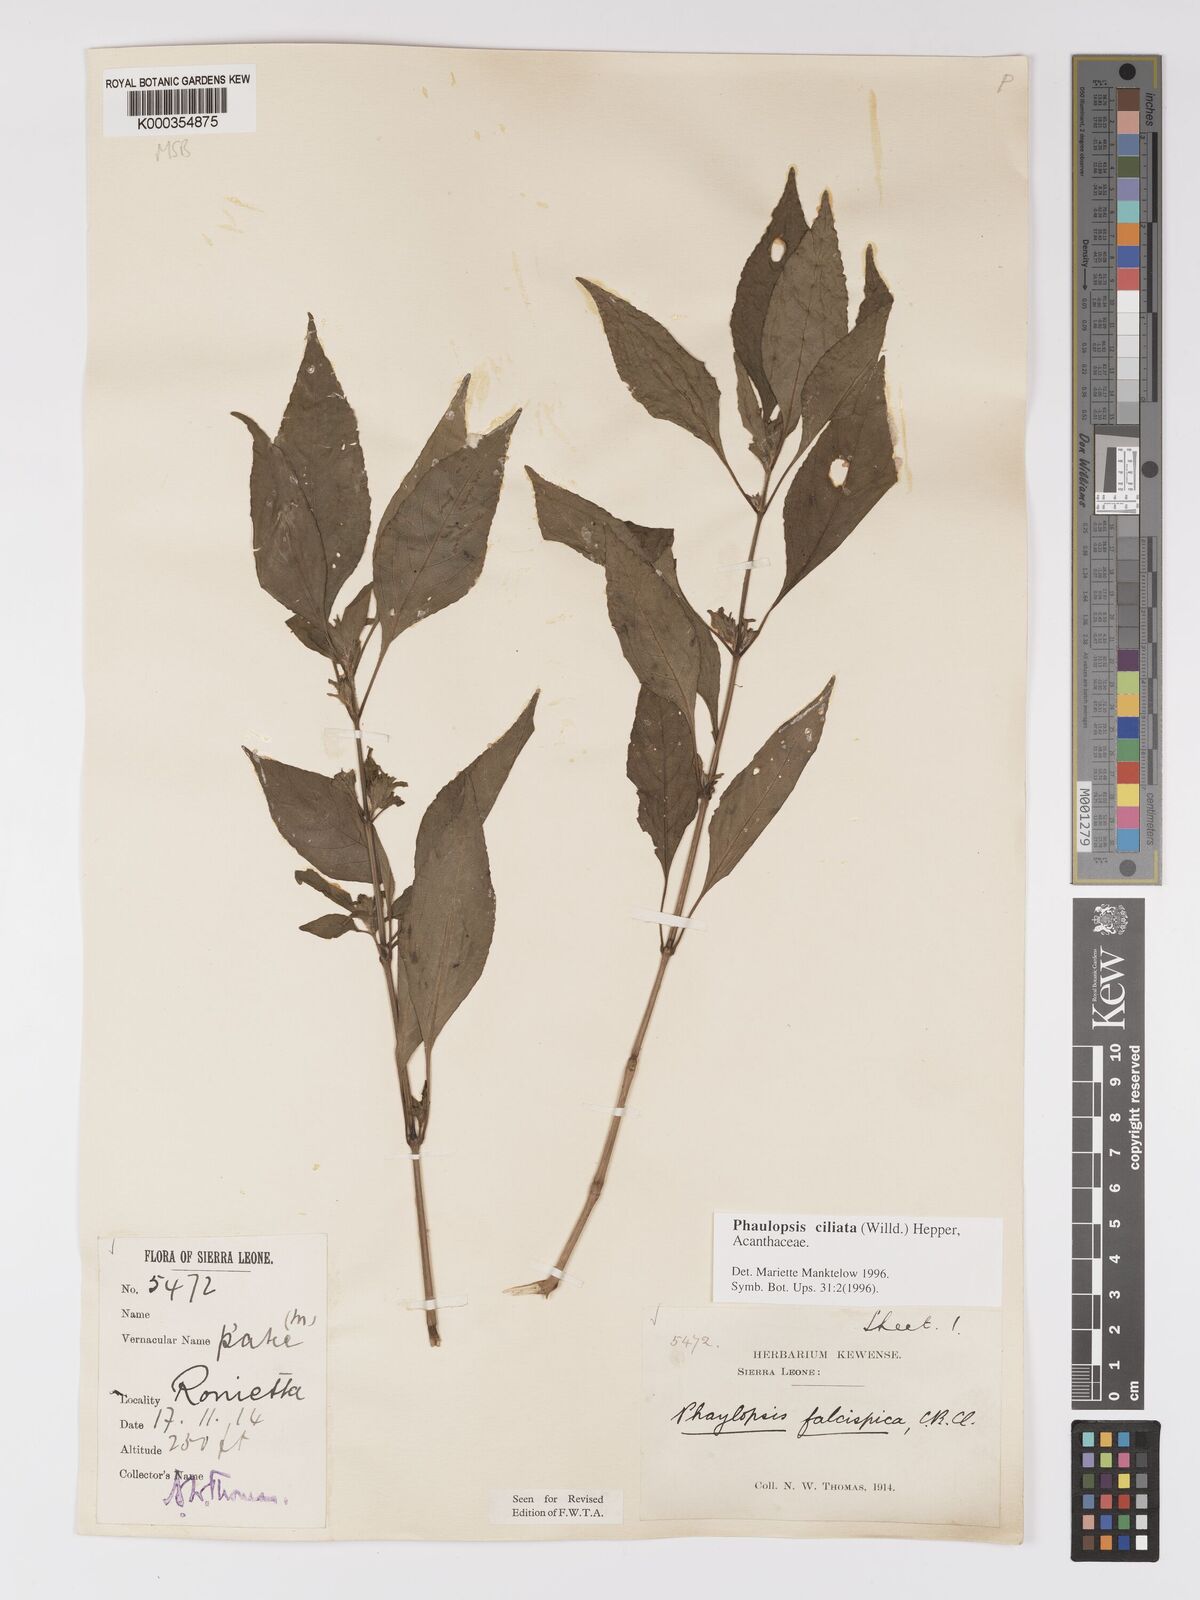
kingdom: Plantae
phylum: Tracheophyta
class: Magnoliopsida
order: Lamiales
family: Acanthaceae
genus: Phaulopsis
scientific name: Phaulopsis ciliata
